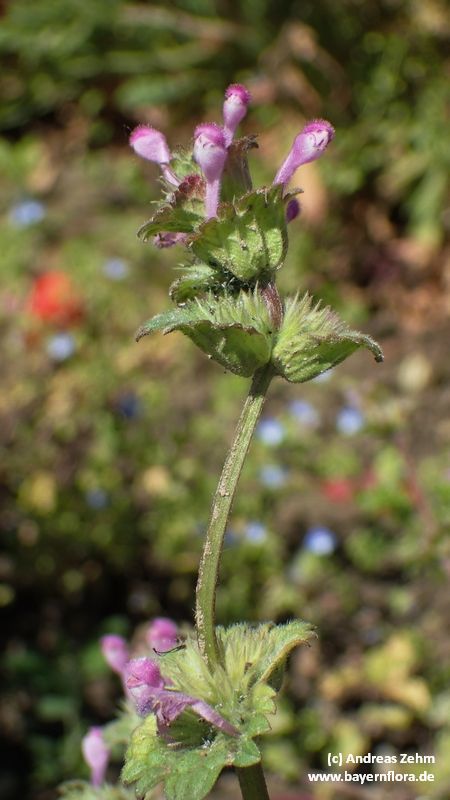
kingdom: Plantae
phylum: Tracheophyta
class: Magnoliopsida
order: Lamiales
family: Lamiaceae
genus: Lamium
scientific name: Lamium amplexicaule
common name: Henbit dead-nettle
